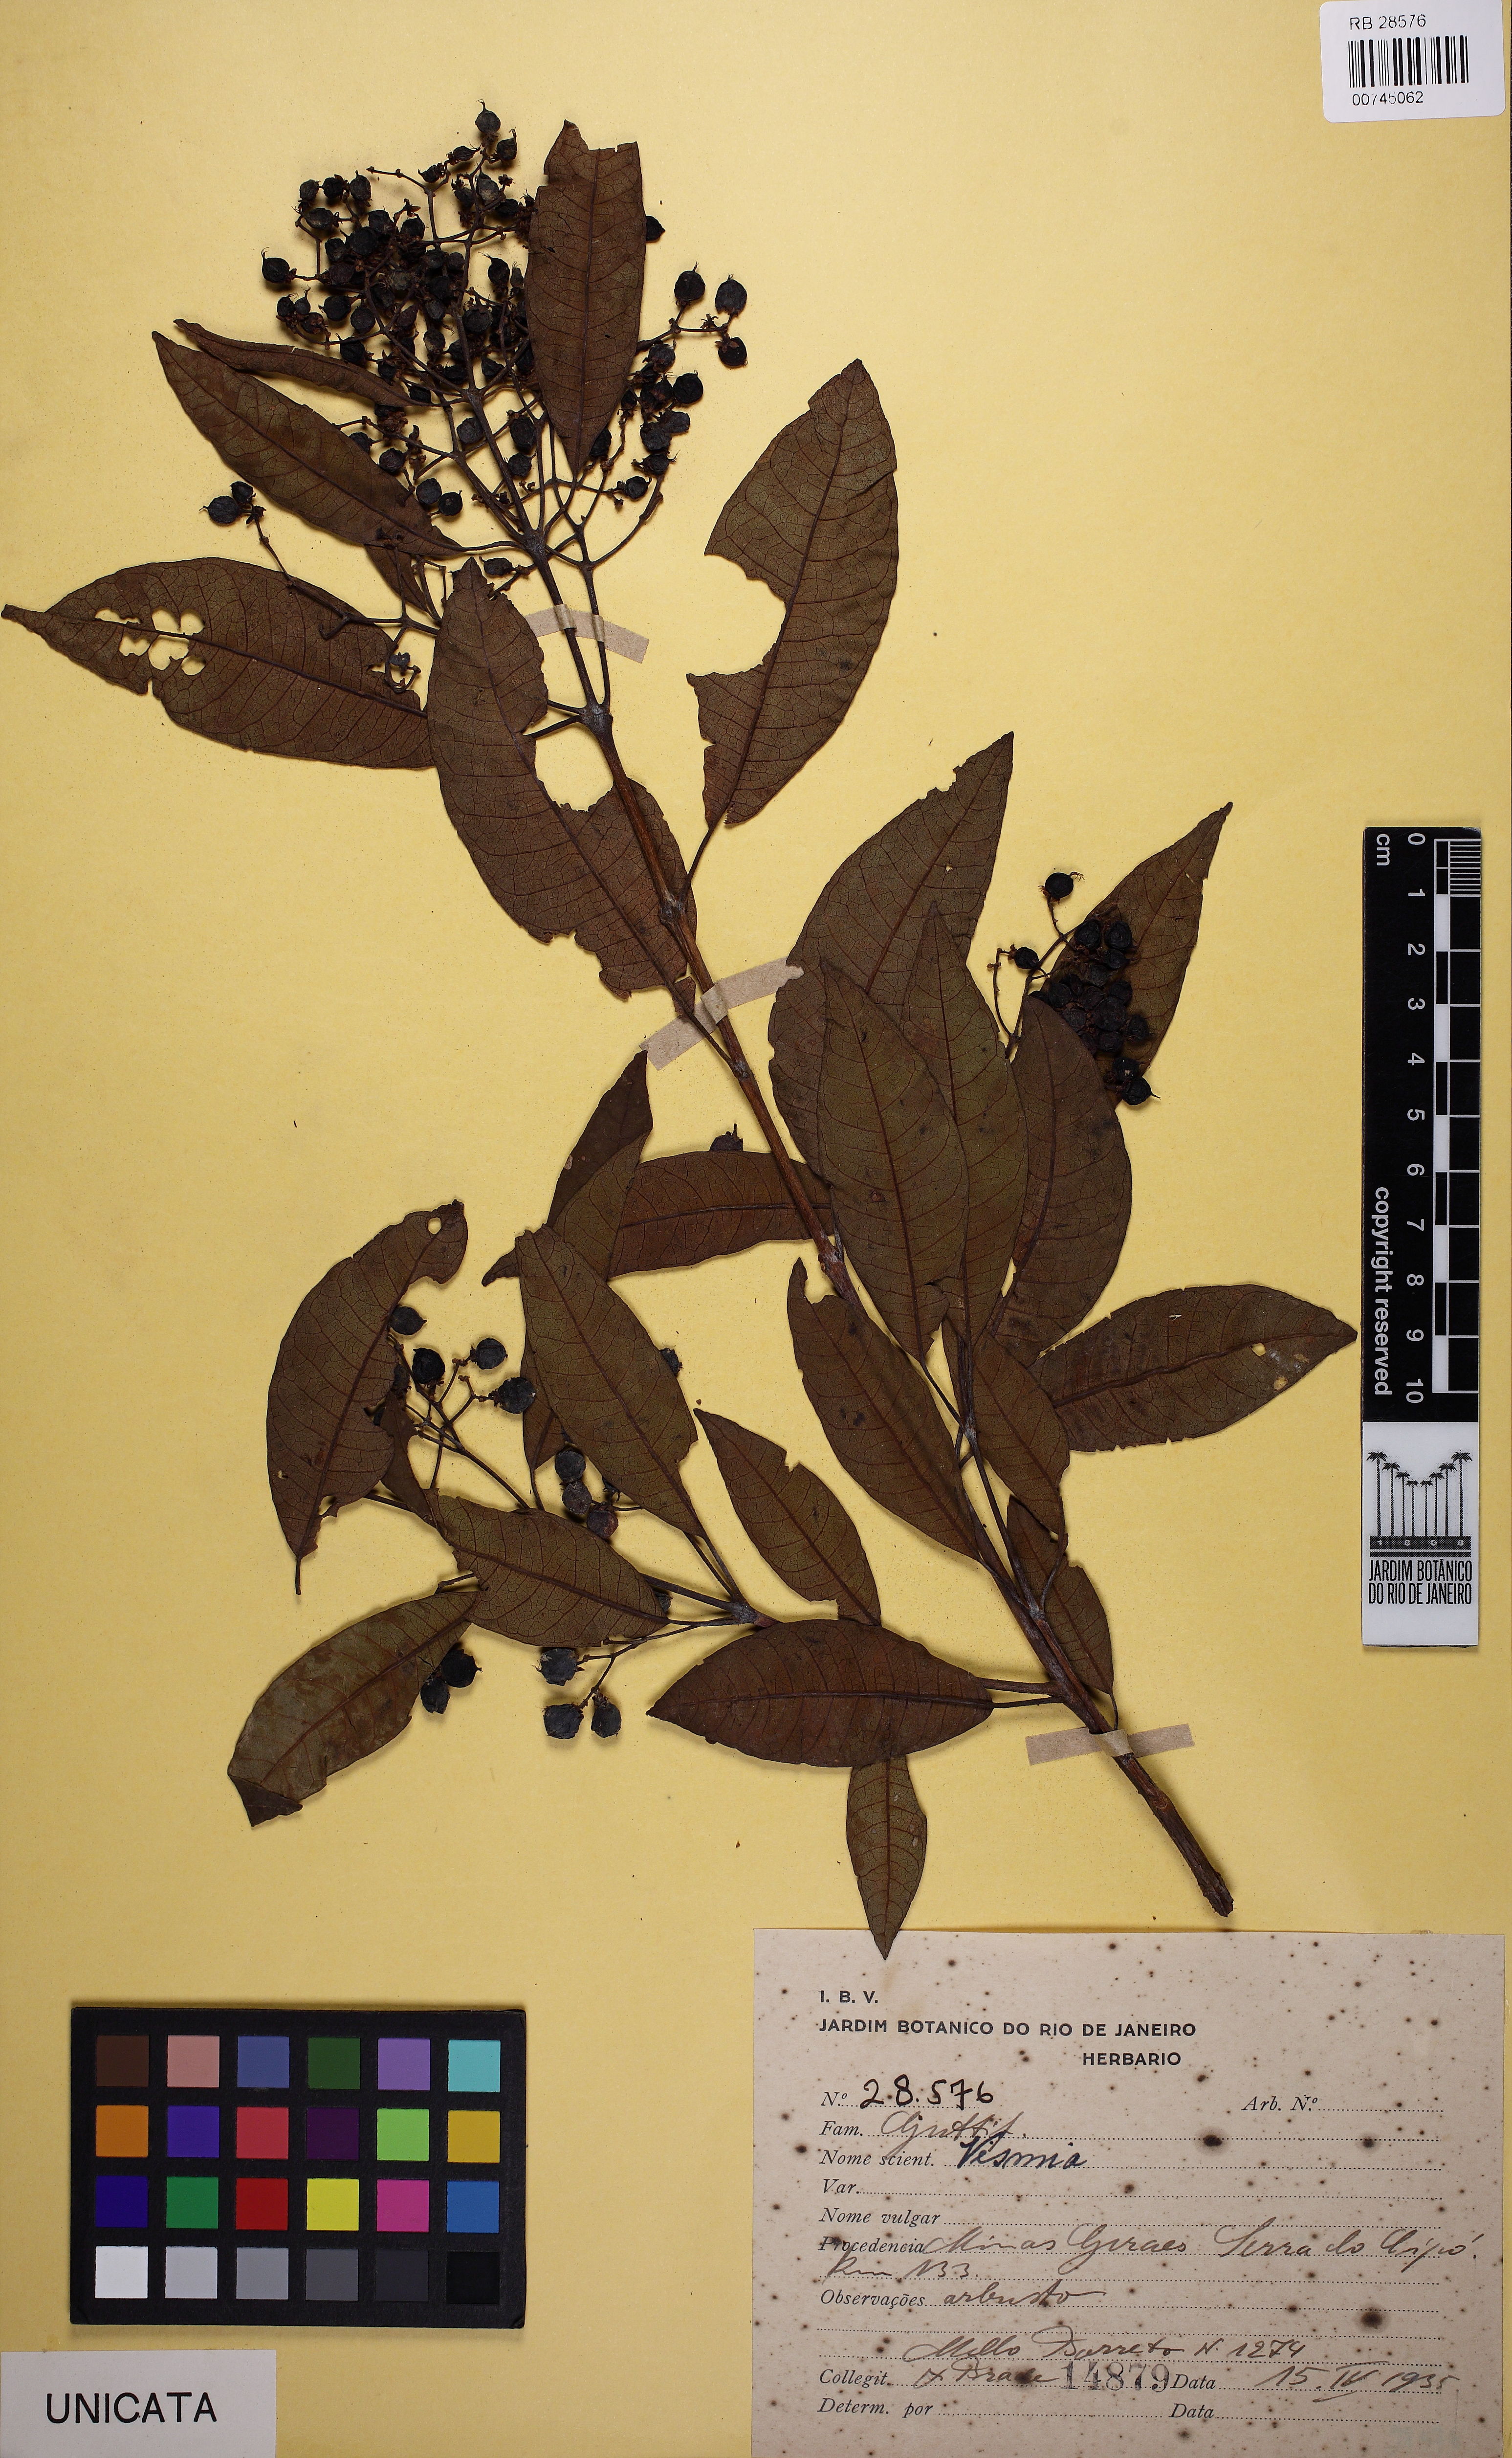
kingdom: Plantae
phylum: Tracheophyta
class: Magnoliopsida
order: Malpighiales
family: Hypericaceae
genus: Vismia
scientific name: Vismia micrantha
